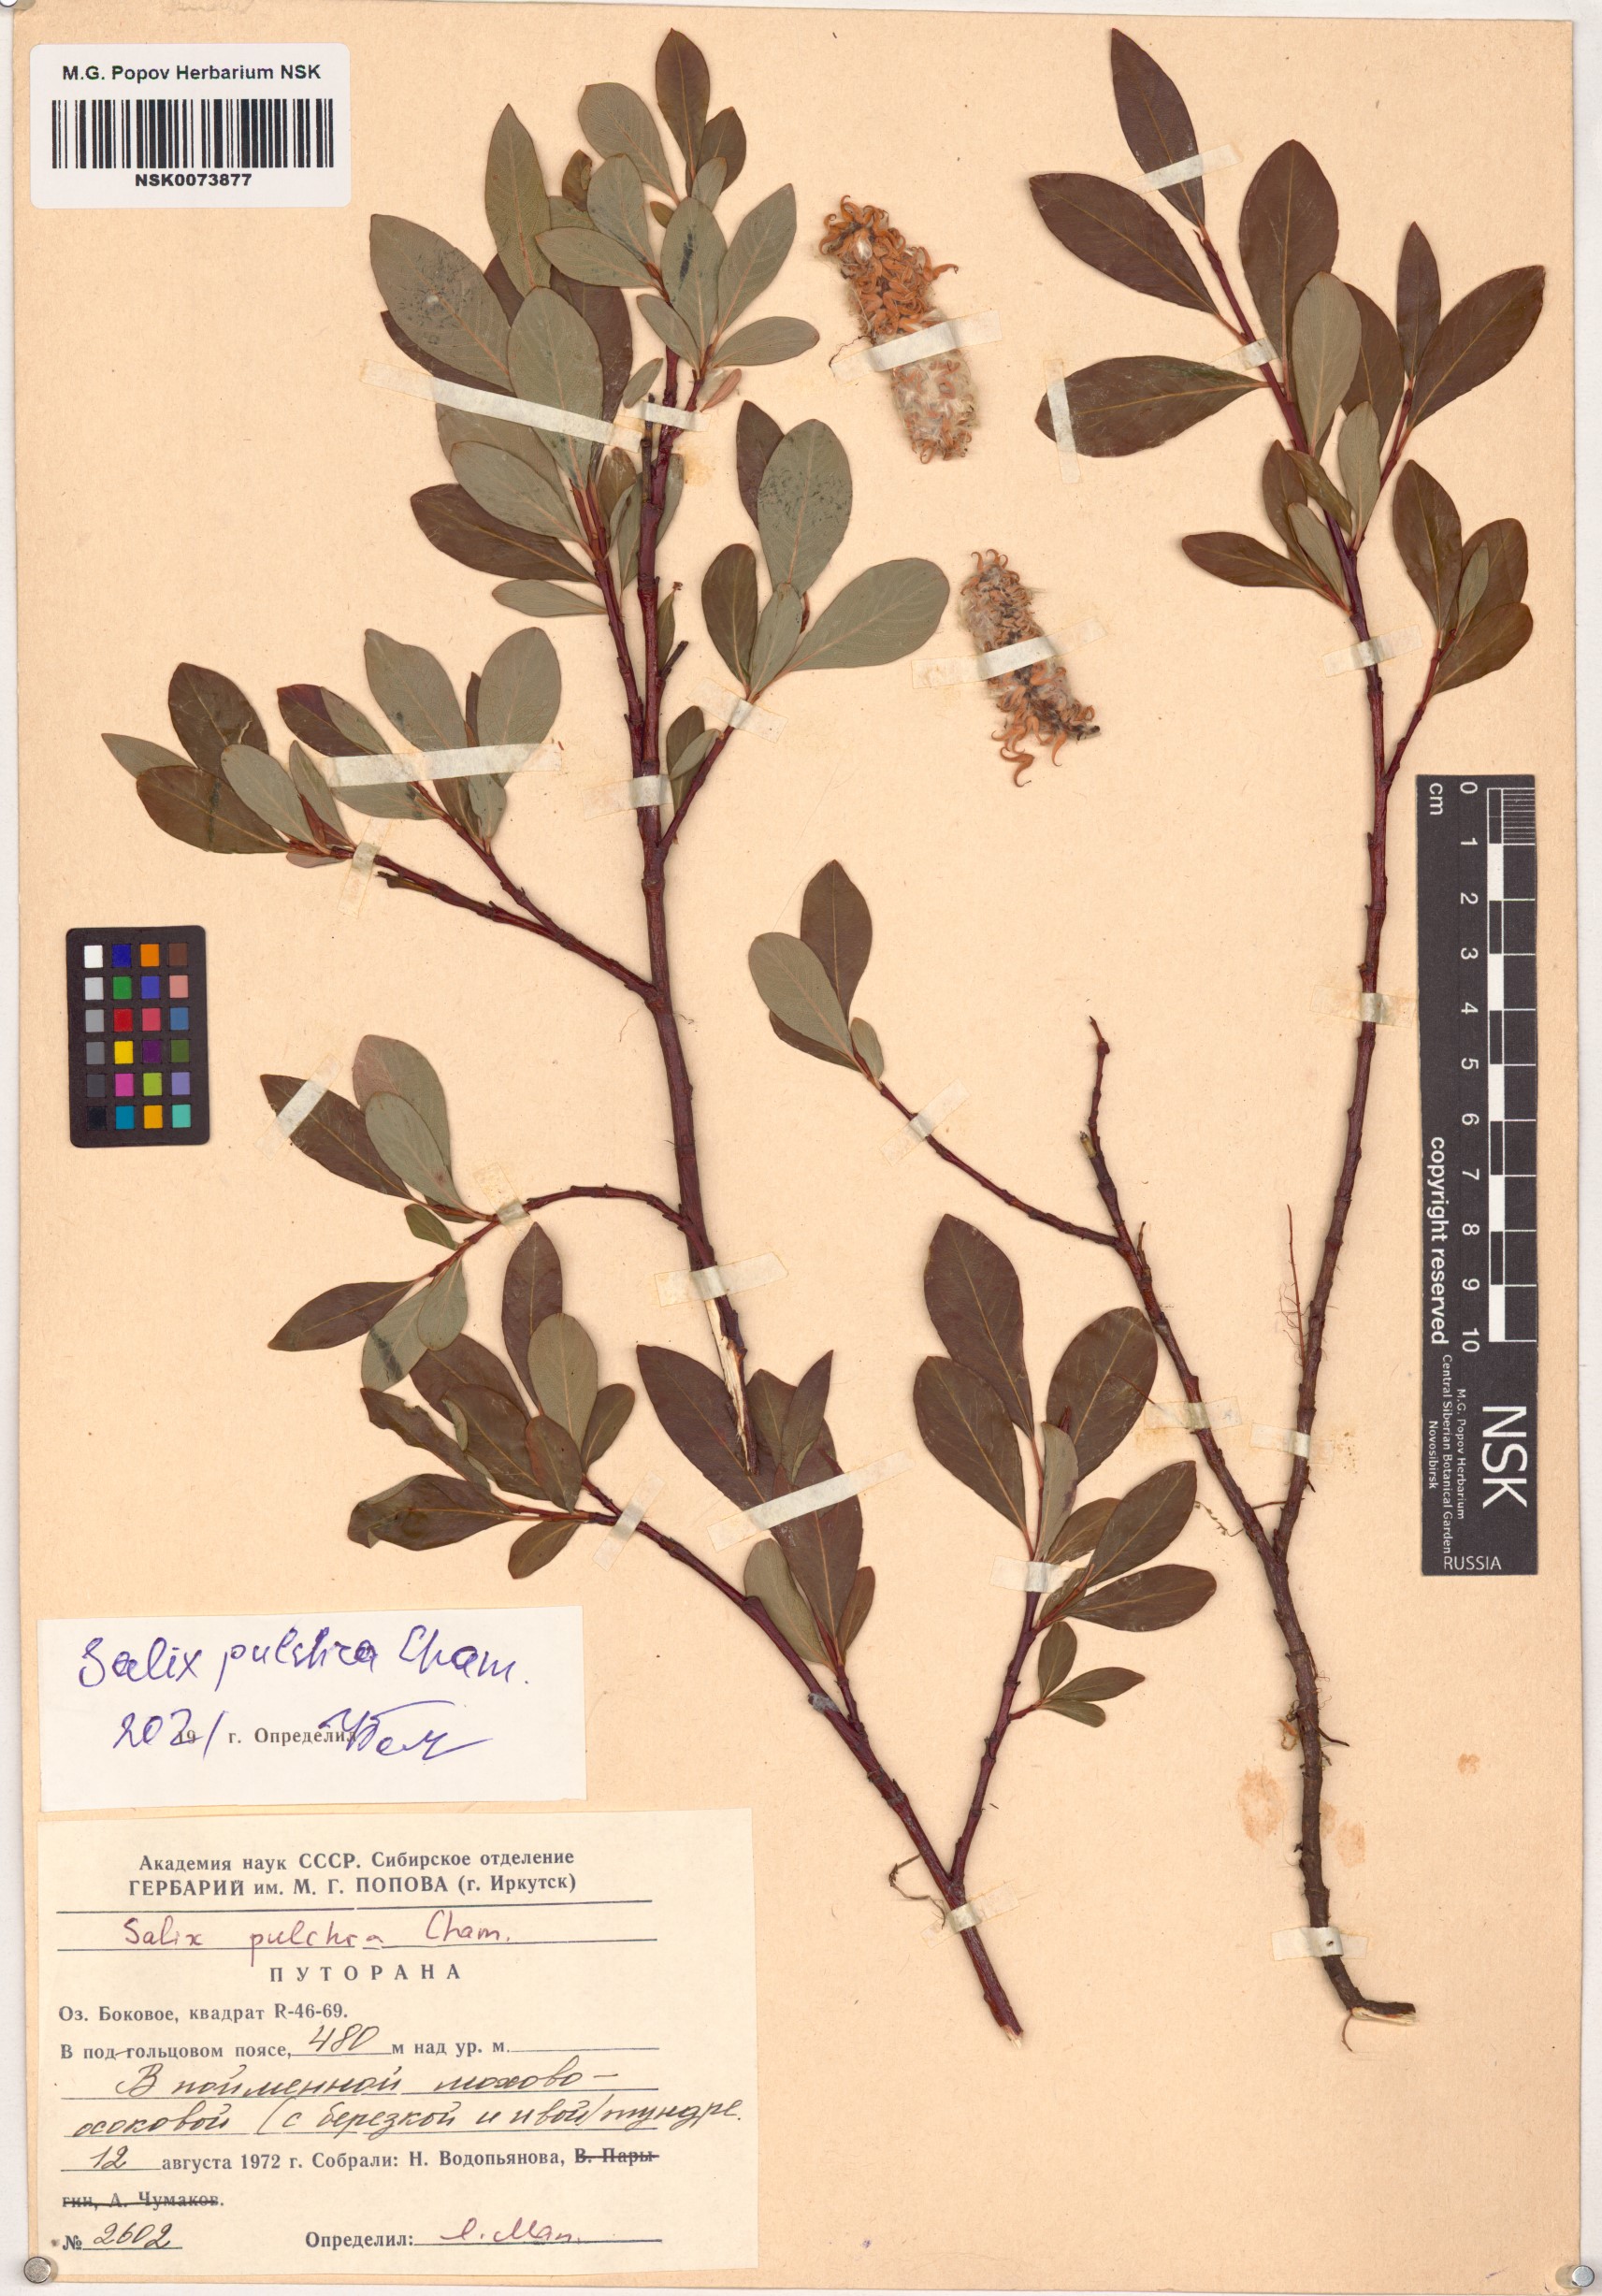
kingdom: Plantae
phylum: Tracheophyta
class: Magnoliopsida
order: Malpighiales
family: Salicaceae
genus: Salix
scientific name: Salix pulchra
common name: Diamond-leaved willow
